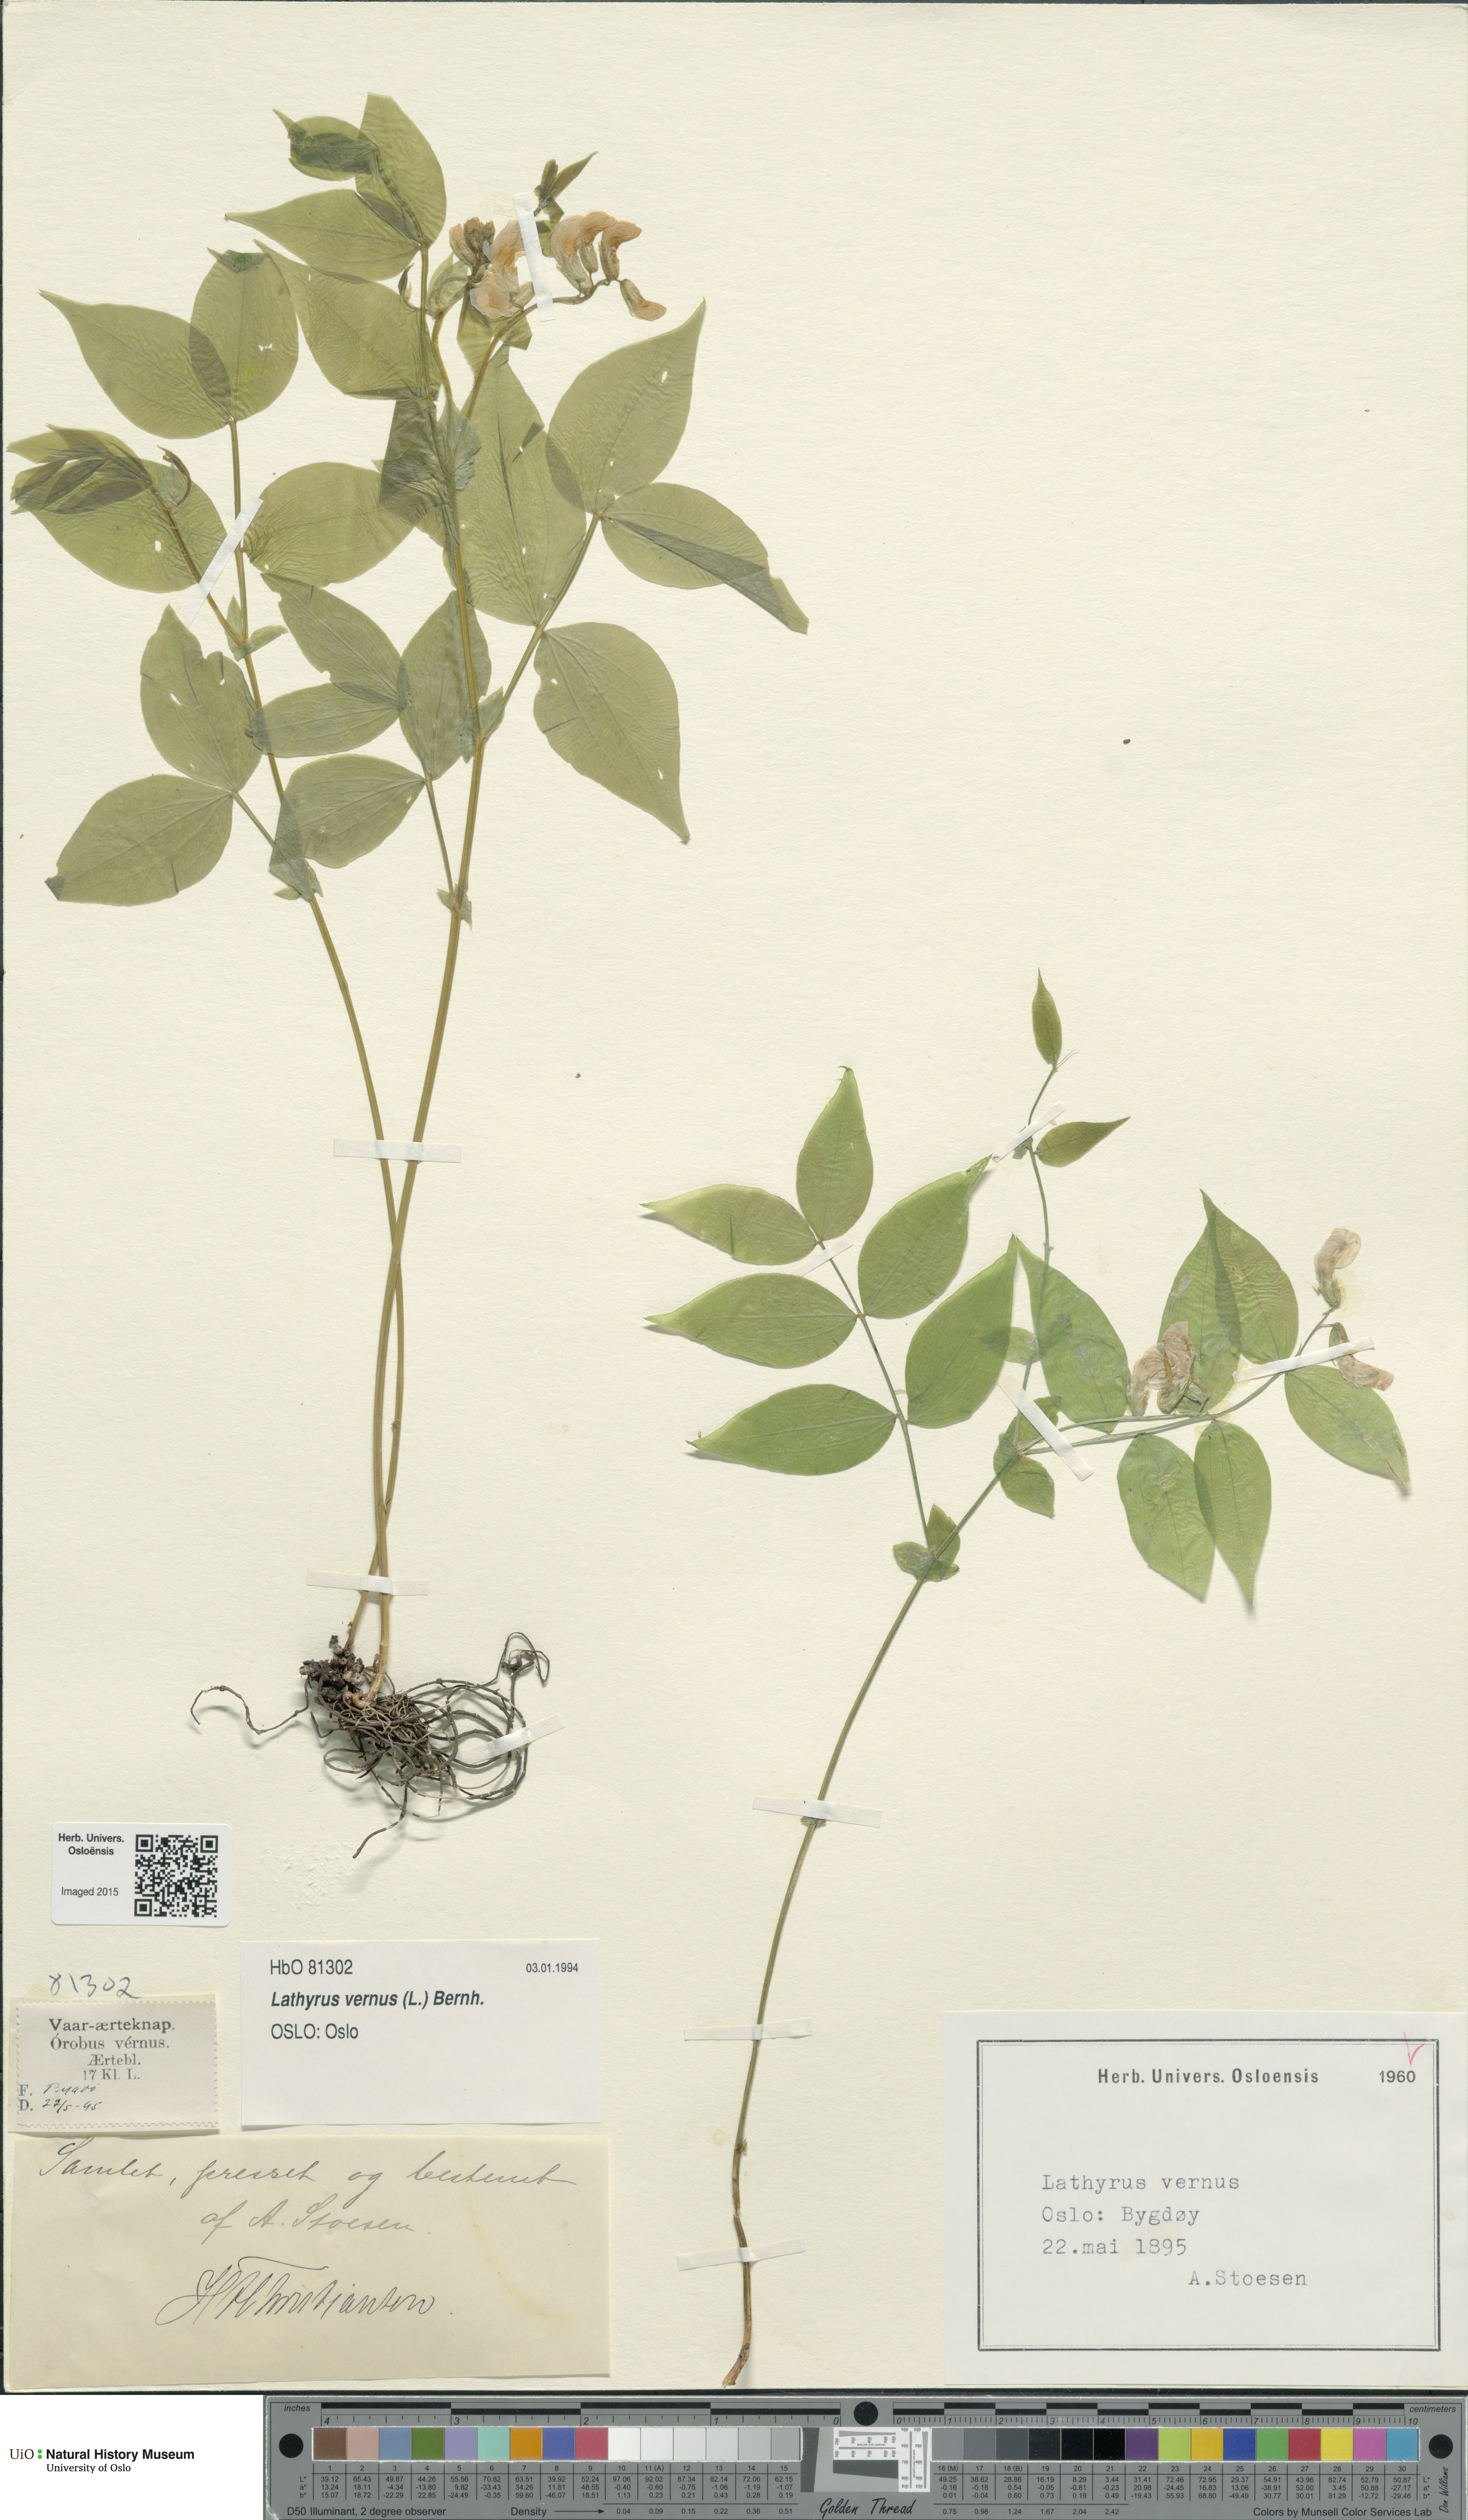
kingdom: Plantae
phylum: Tracheophyta
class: Magnoliopsida
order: Fabales
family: Fabaceae
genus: Lathyrus
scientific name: Lathyrus vernus
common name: Spring pea
